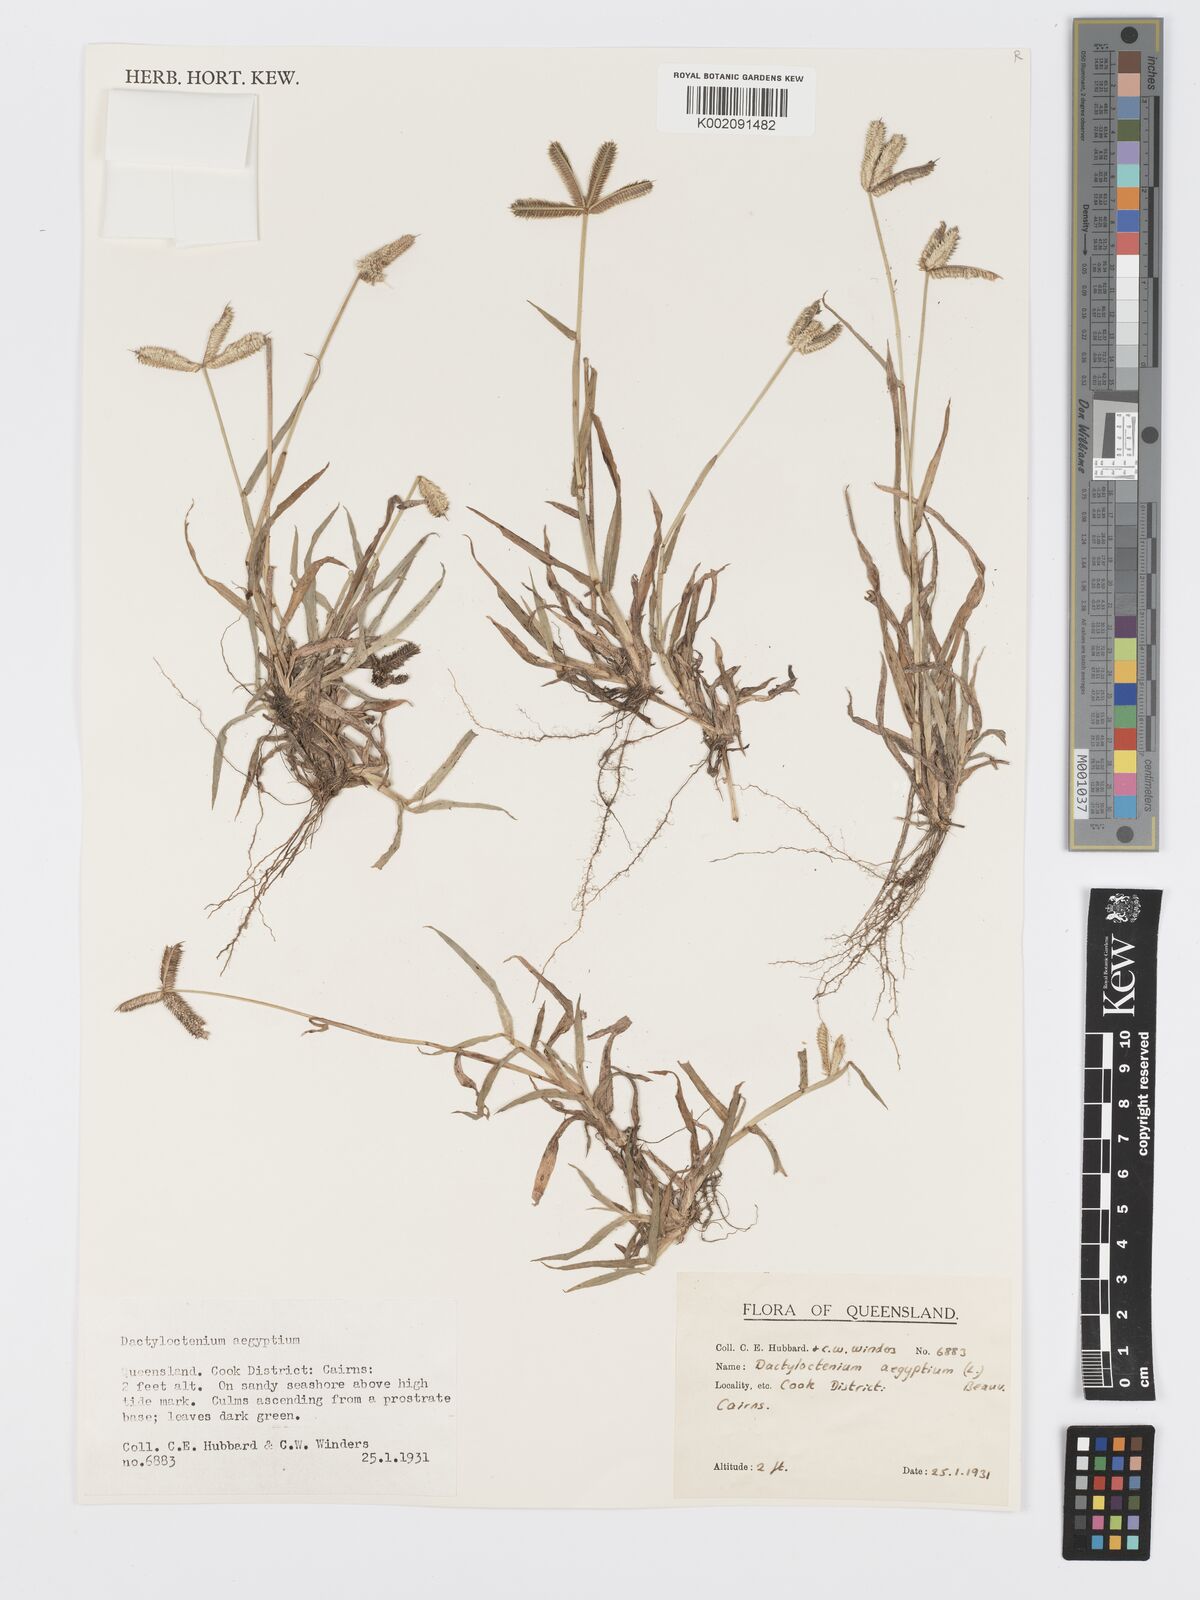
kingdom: Plantae
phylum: Tracheophyta
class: Liliopsida
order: Poales
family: Poaceae
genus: Dactyloctenium
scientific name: Dactyloctenium aegyptium
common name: Egyptian grass
